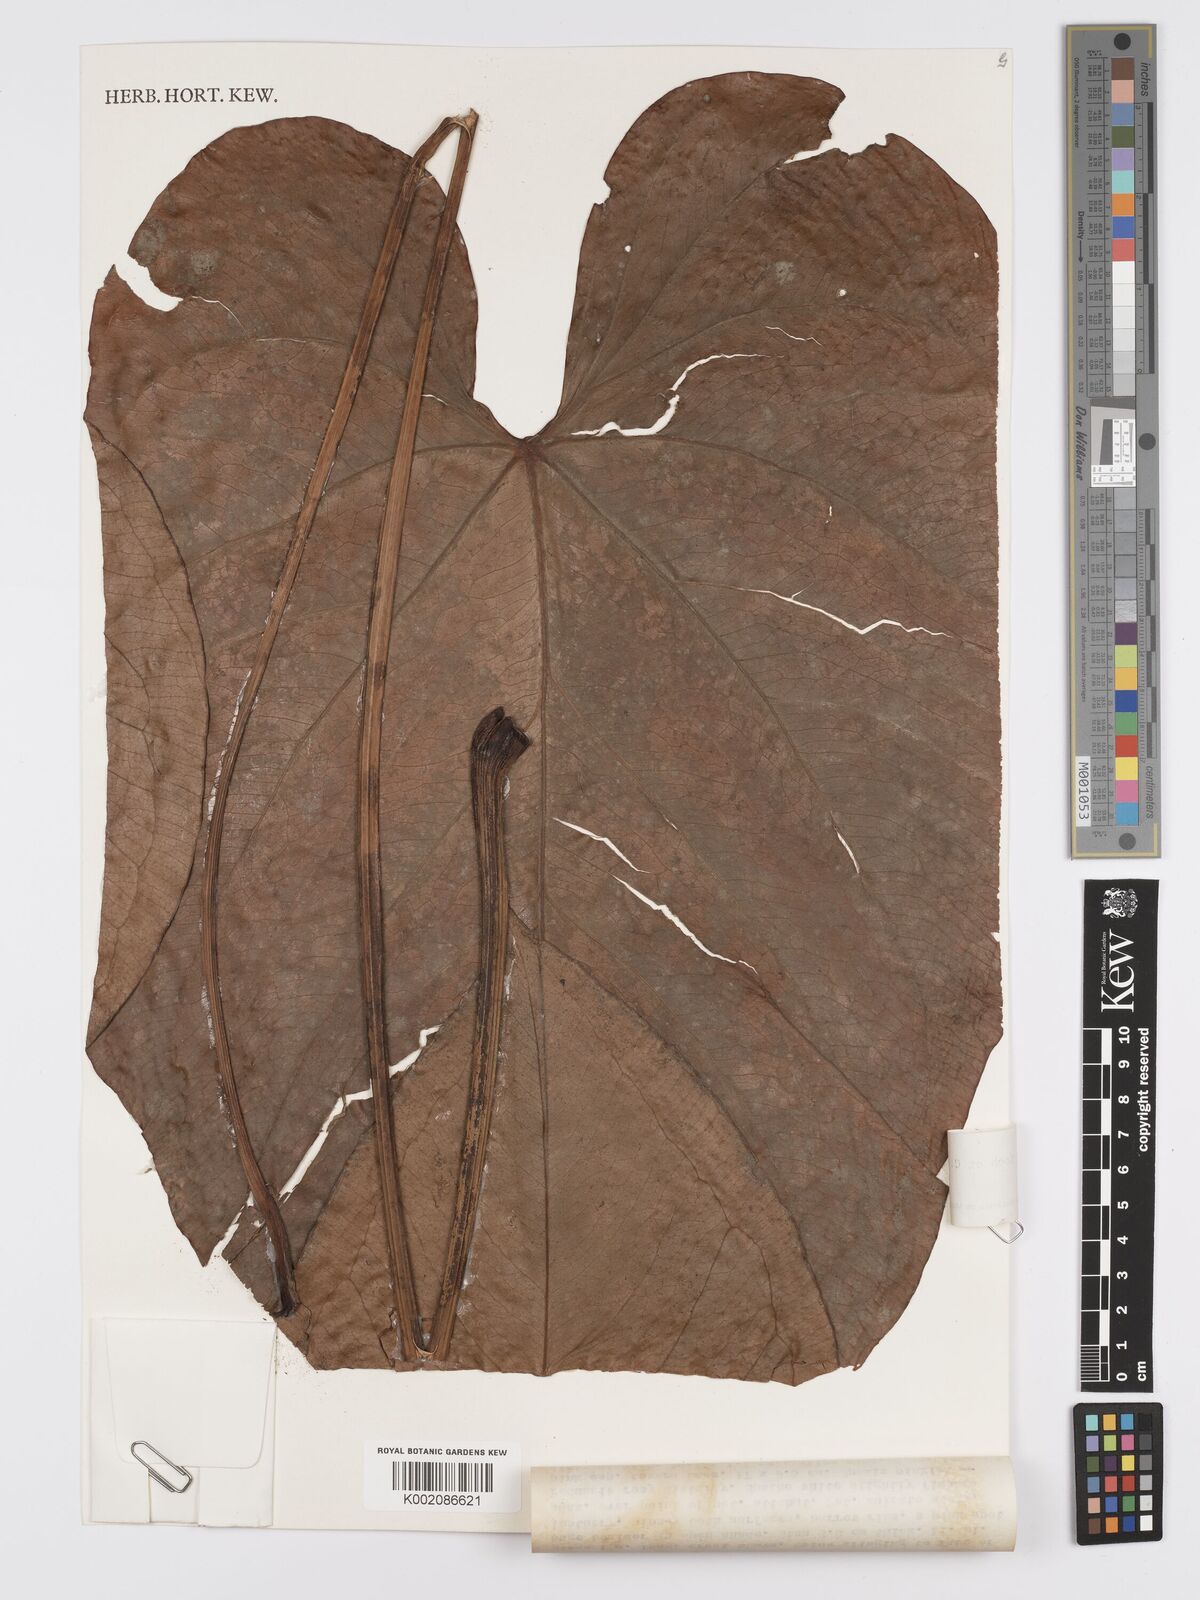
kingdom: Plantae
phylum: Tracheophyta
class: Liliopsida
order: Alismatales
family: Araceae
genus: Anthurium
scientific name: Anthurium nymphaeifolium
